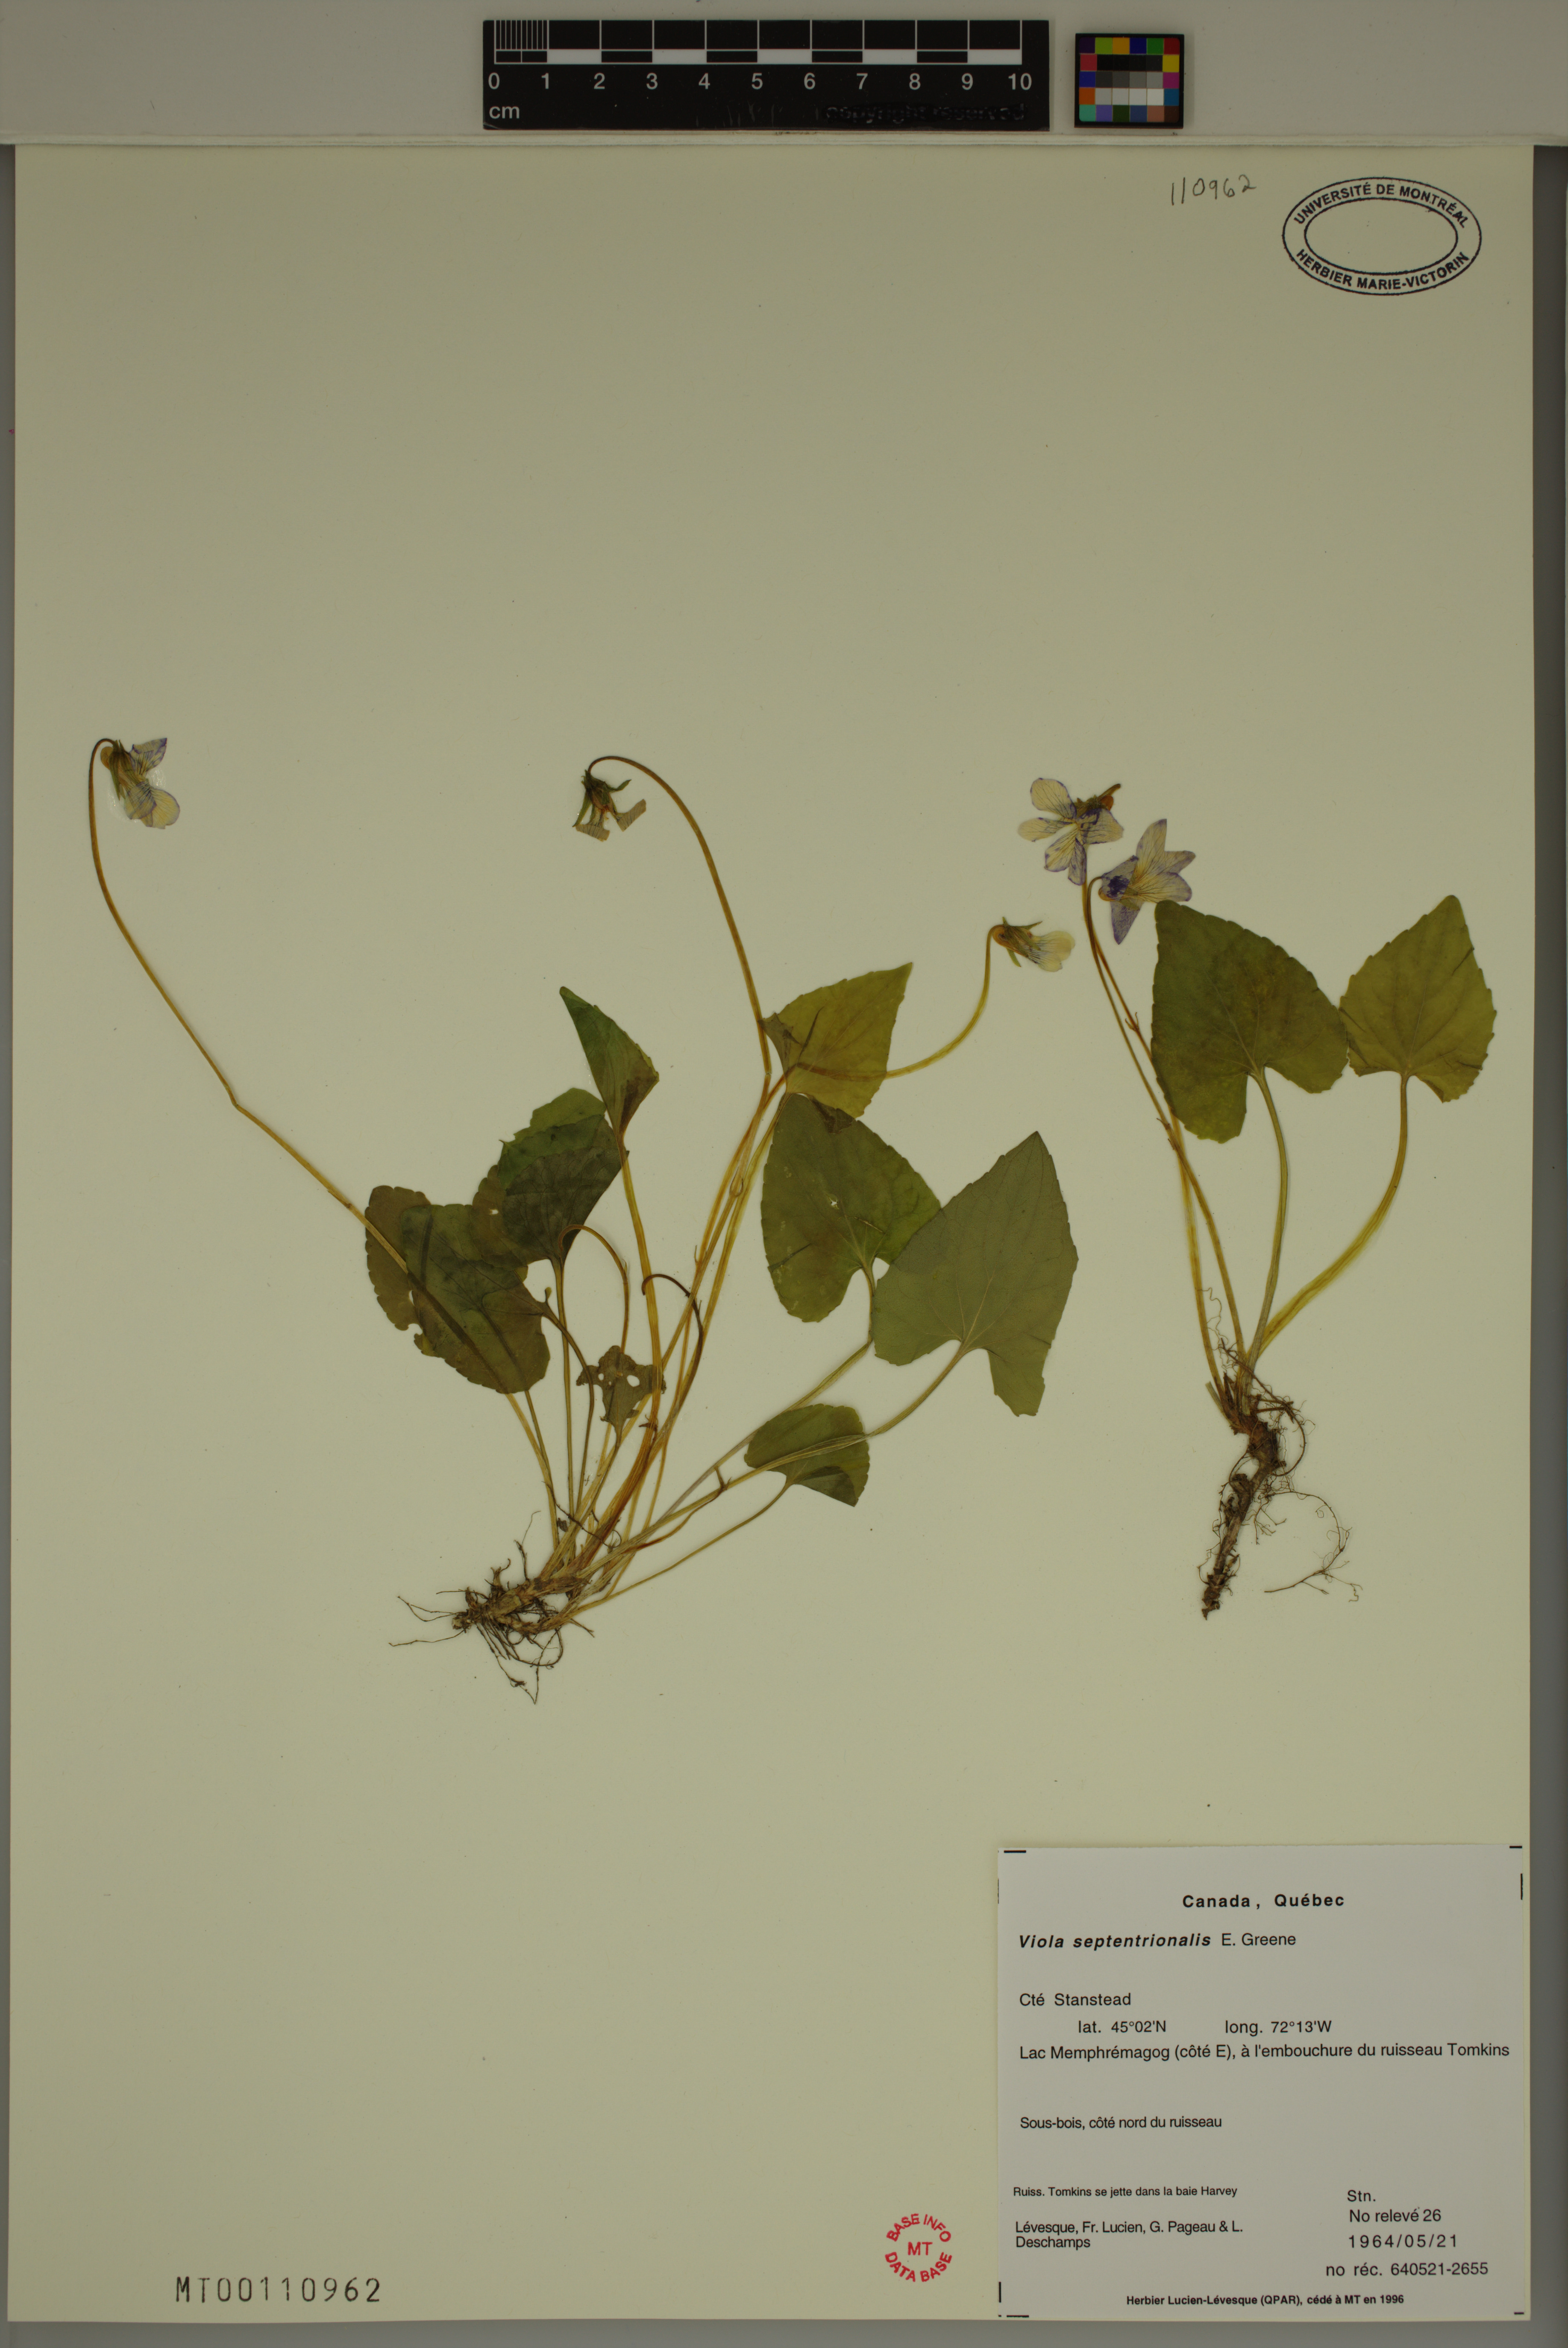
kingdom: Plantae
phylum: Tracheophyta
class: Magnoliopsida
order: Malpighiales
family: Violaceae
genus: Viola
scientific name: Viola sororia
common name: Dooryard violet
